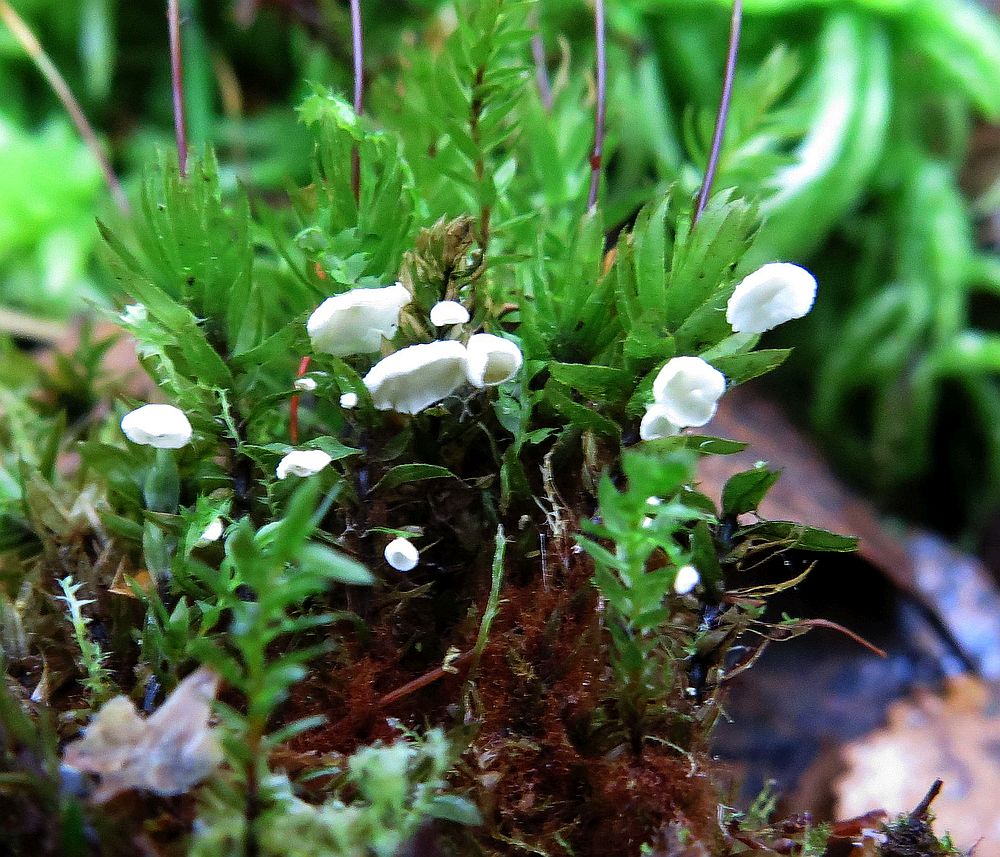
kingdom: Fungi
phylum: Basidiomycota
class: Agaricomycetes
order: Agaricales
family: Tricholomataceae
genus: Rimbachia
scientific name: Rimbachia arachnoidea
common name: Almindelig mosskål
